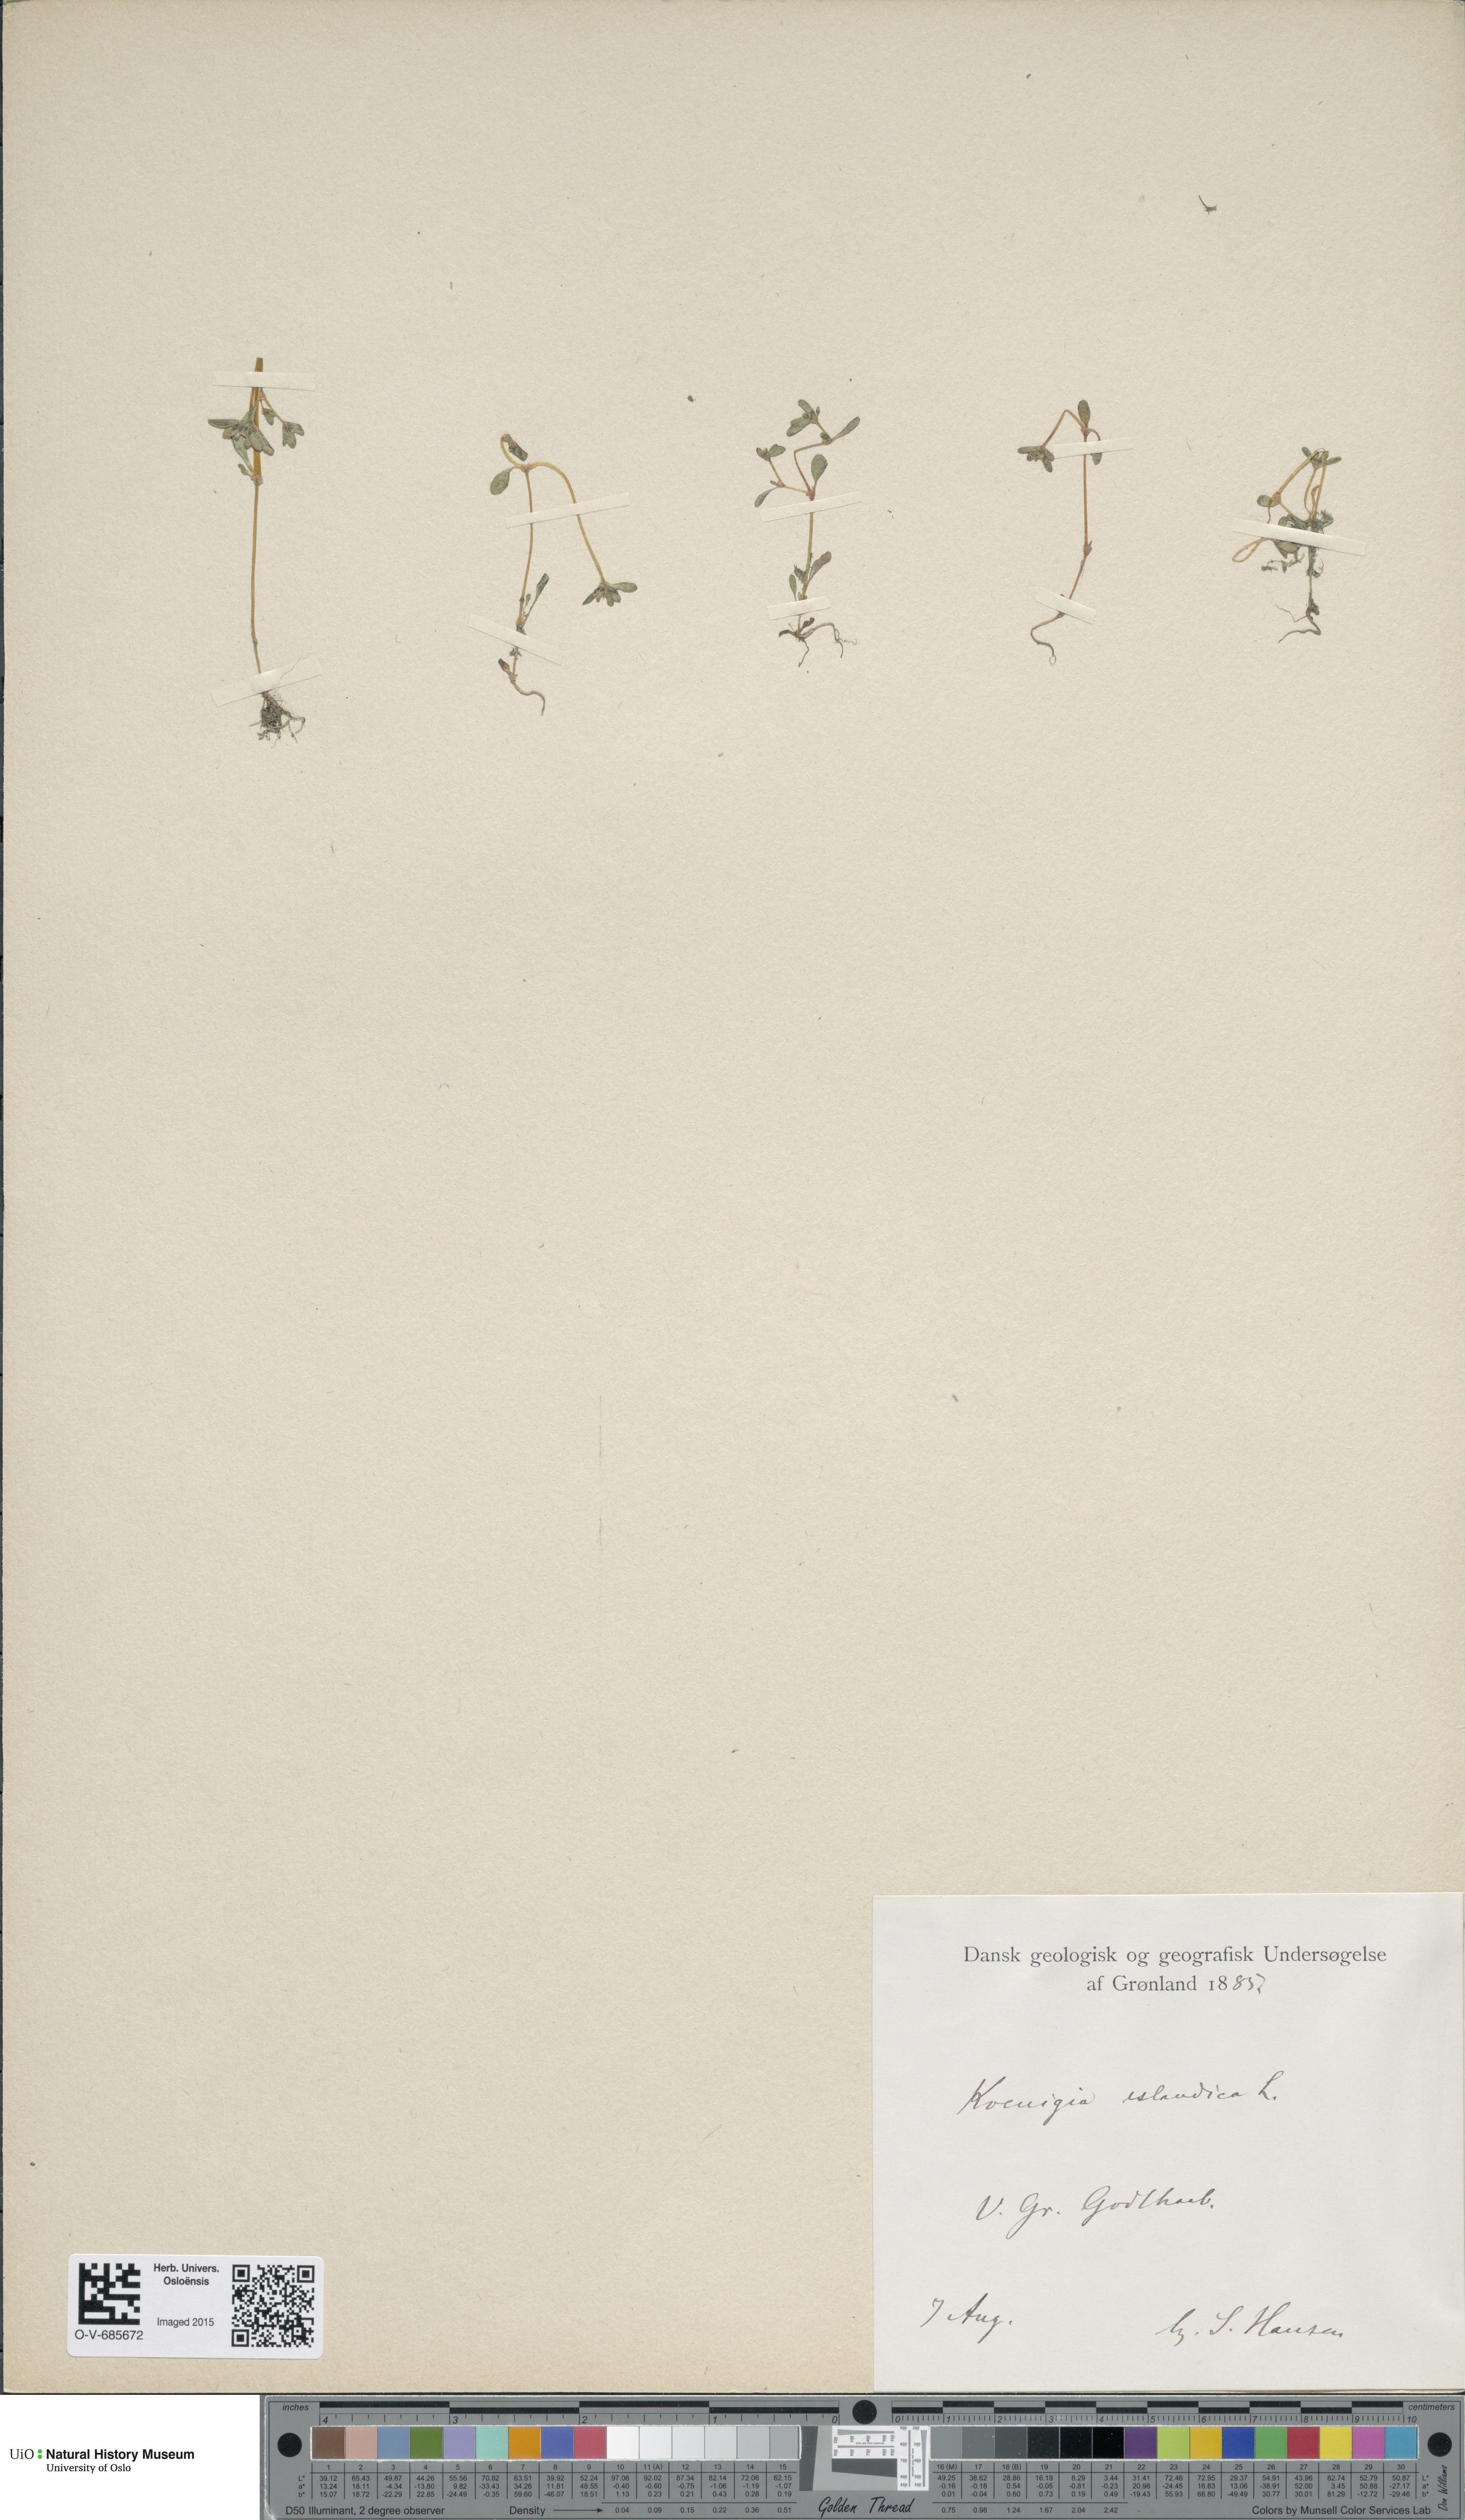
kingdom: Plantae
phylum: Tracheophyta
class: Magnoliopsida
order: Caryophyllales
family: Polygonaceae
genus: Koenigia
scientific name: Koenigia islandica
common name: Iceland-purslane
